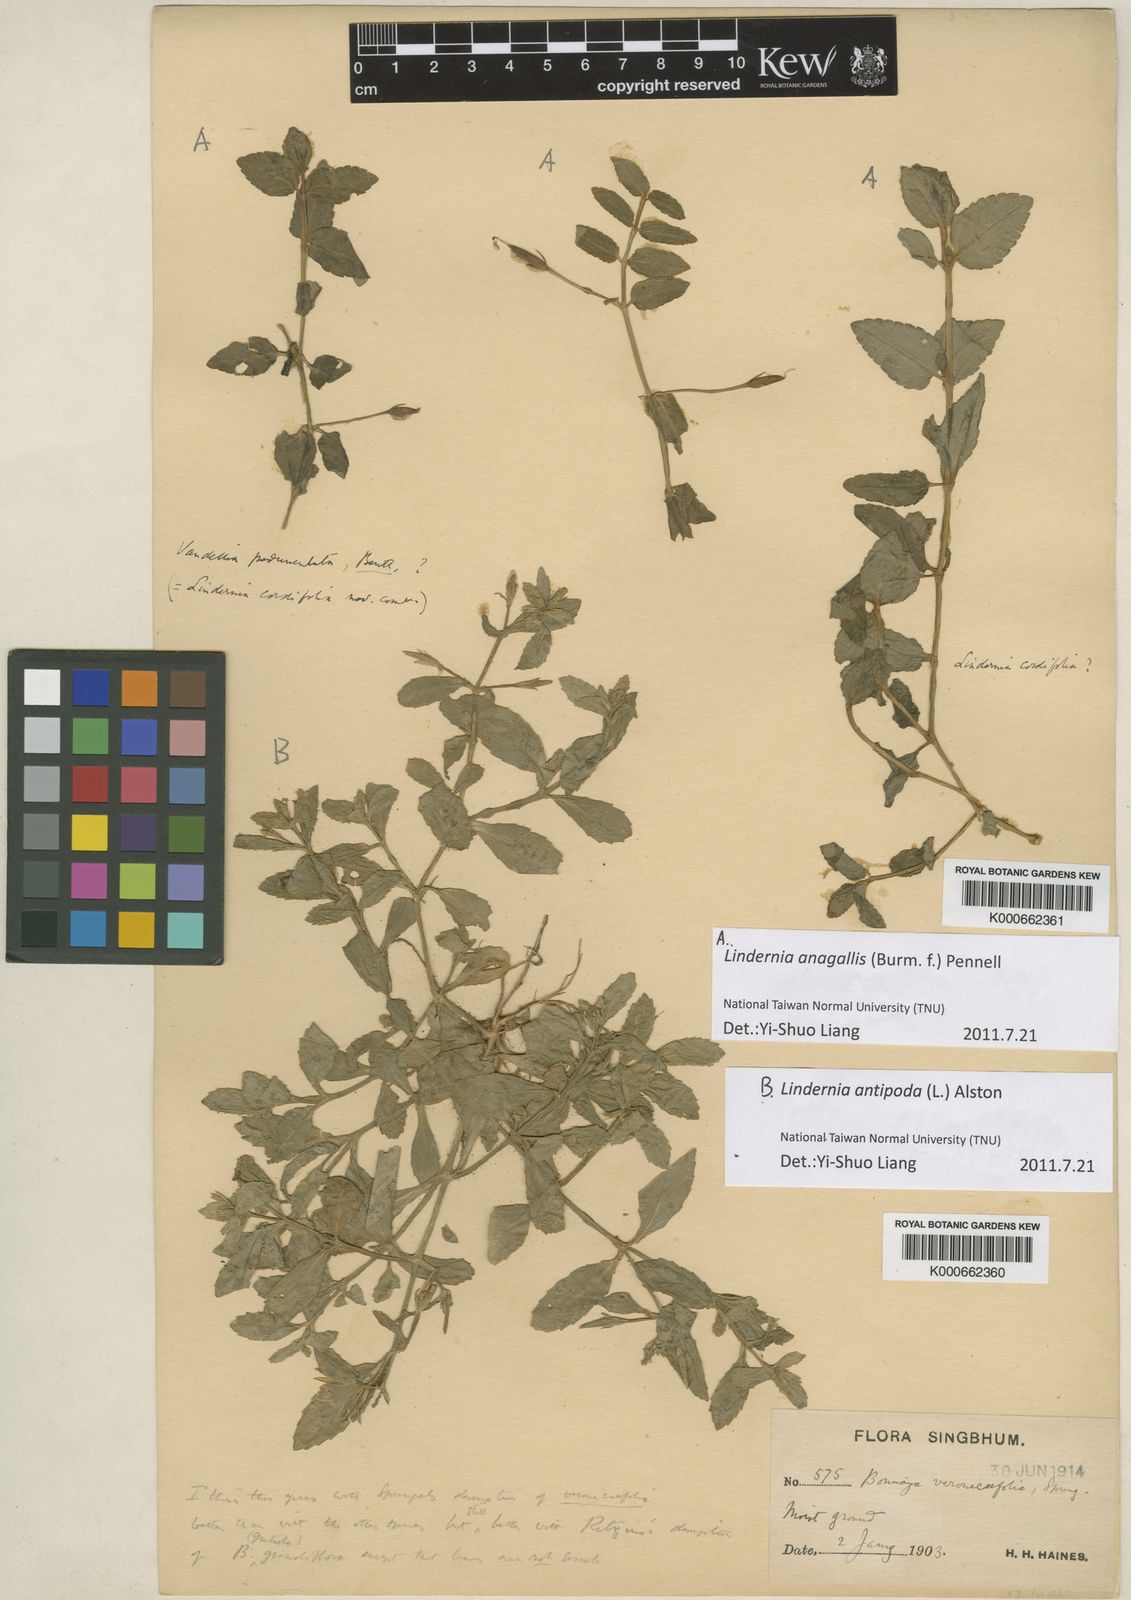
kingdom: Plantae
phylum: Tracheophyta
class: Magnoliopsida
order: Lamiales
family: Linderniaceae
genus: Torenia
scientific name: Torenia anagallis
